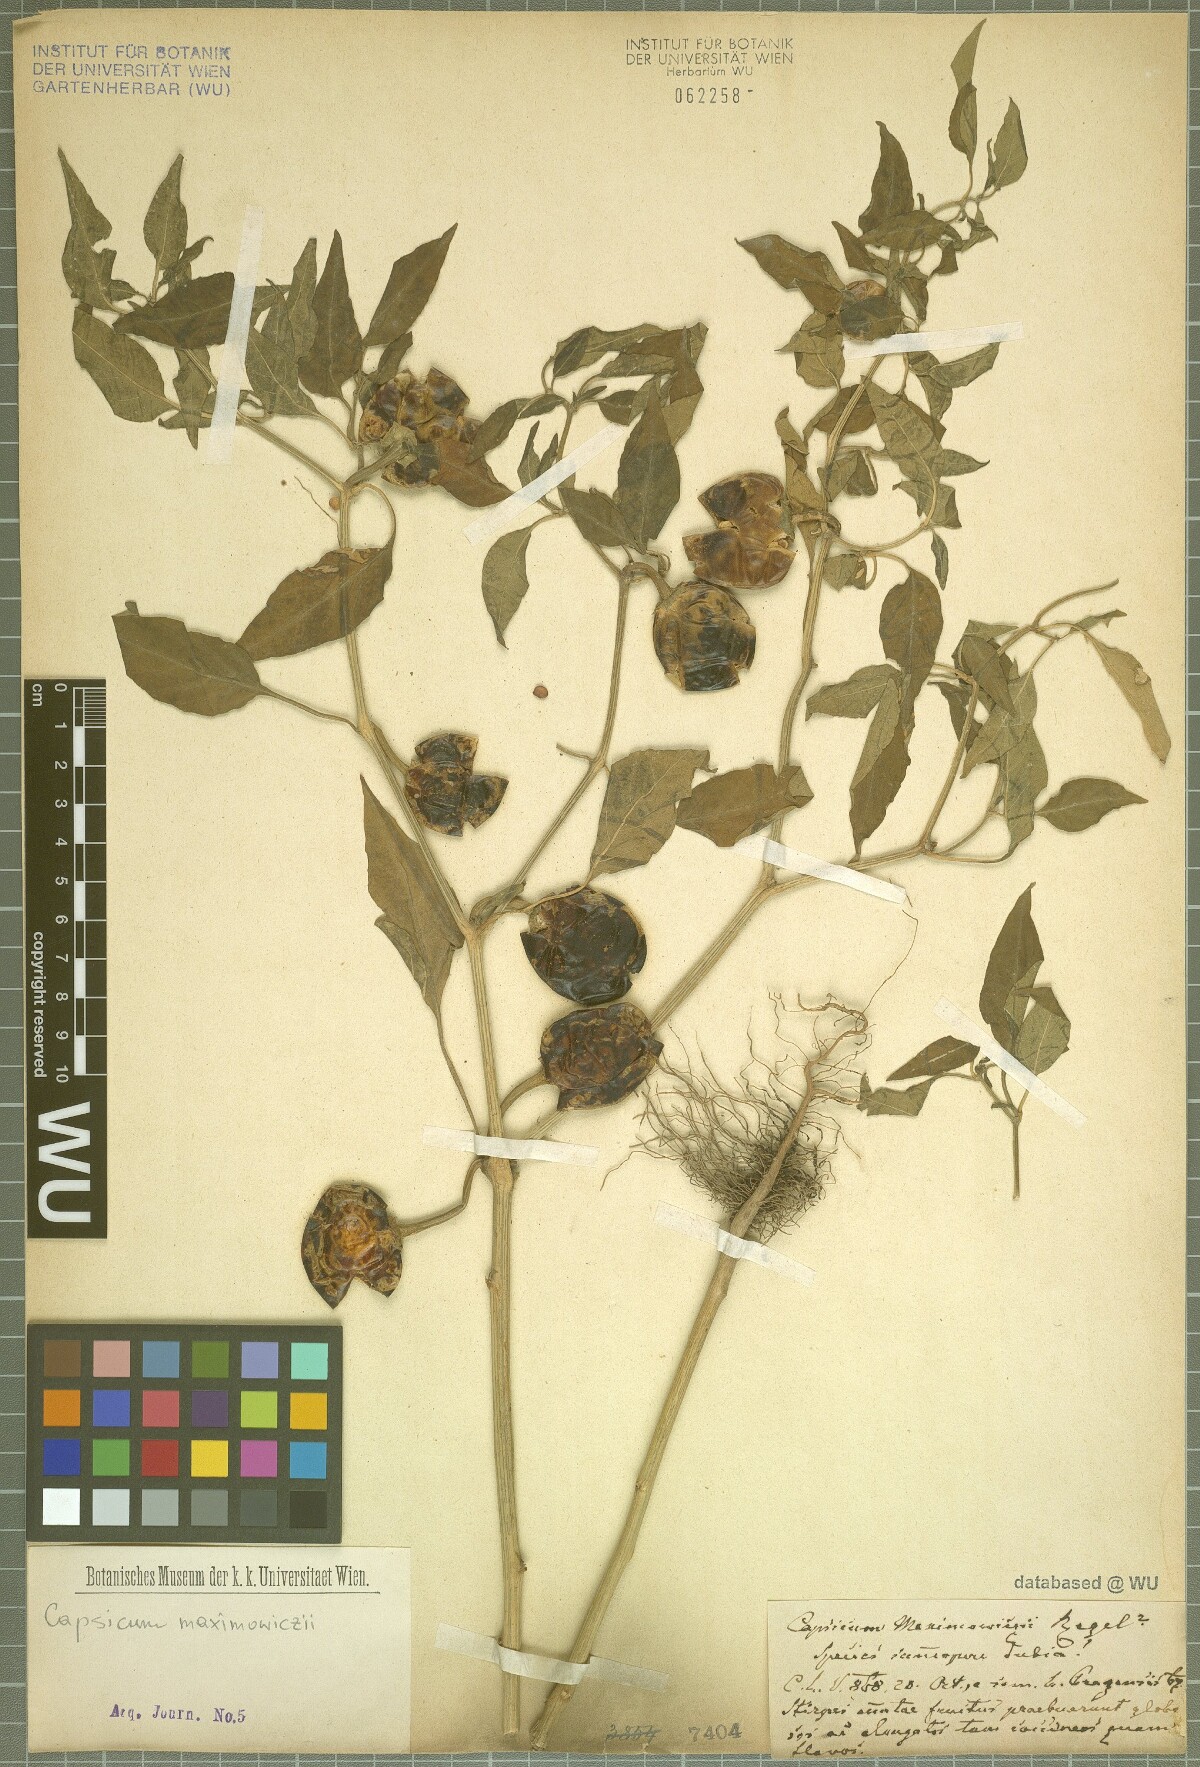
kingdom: Plantae
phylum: Tracheophyta
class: Magnoliopsida
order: Solanales
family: Solanaceae
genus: Capsicum
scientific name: Capsicum pubescens
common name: Apple chile
